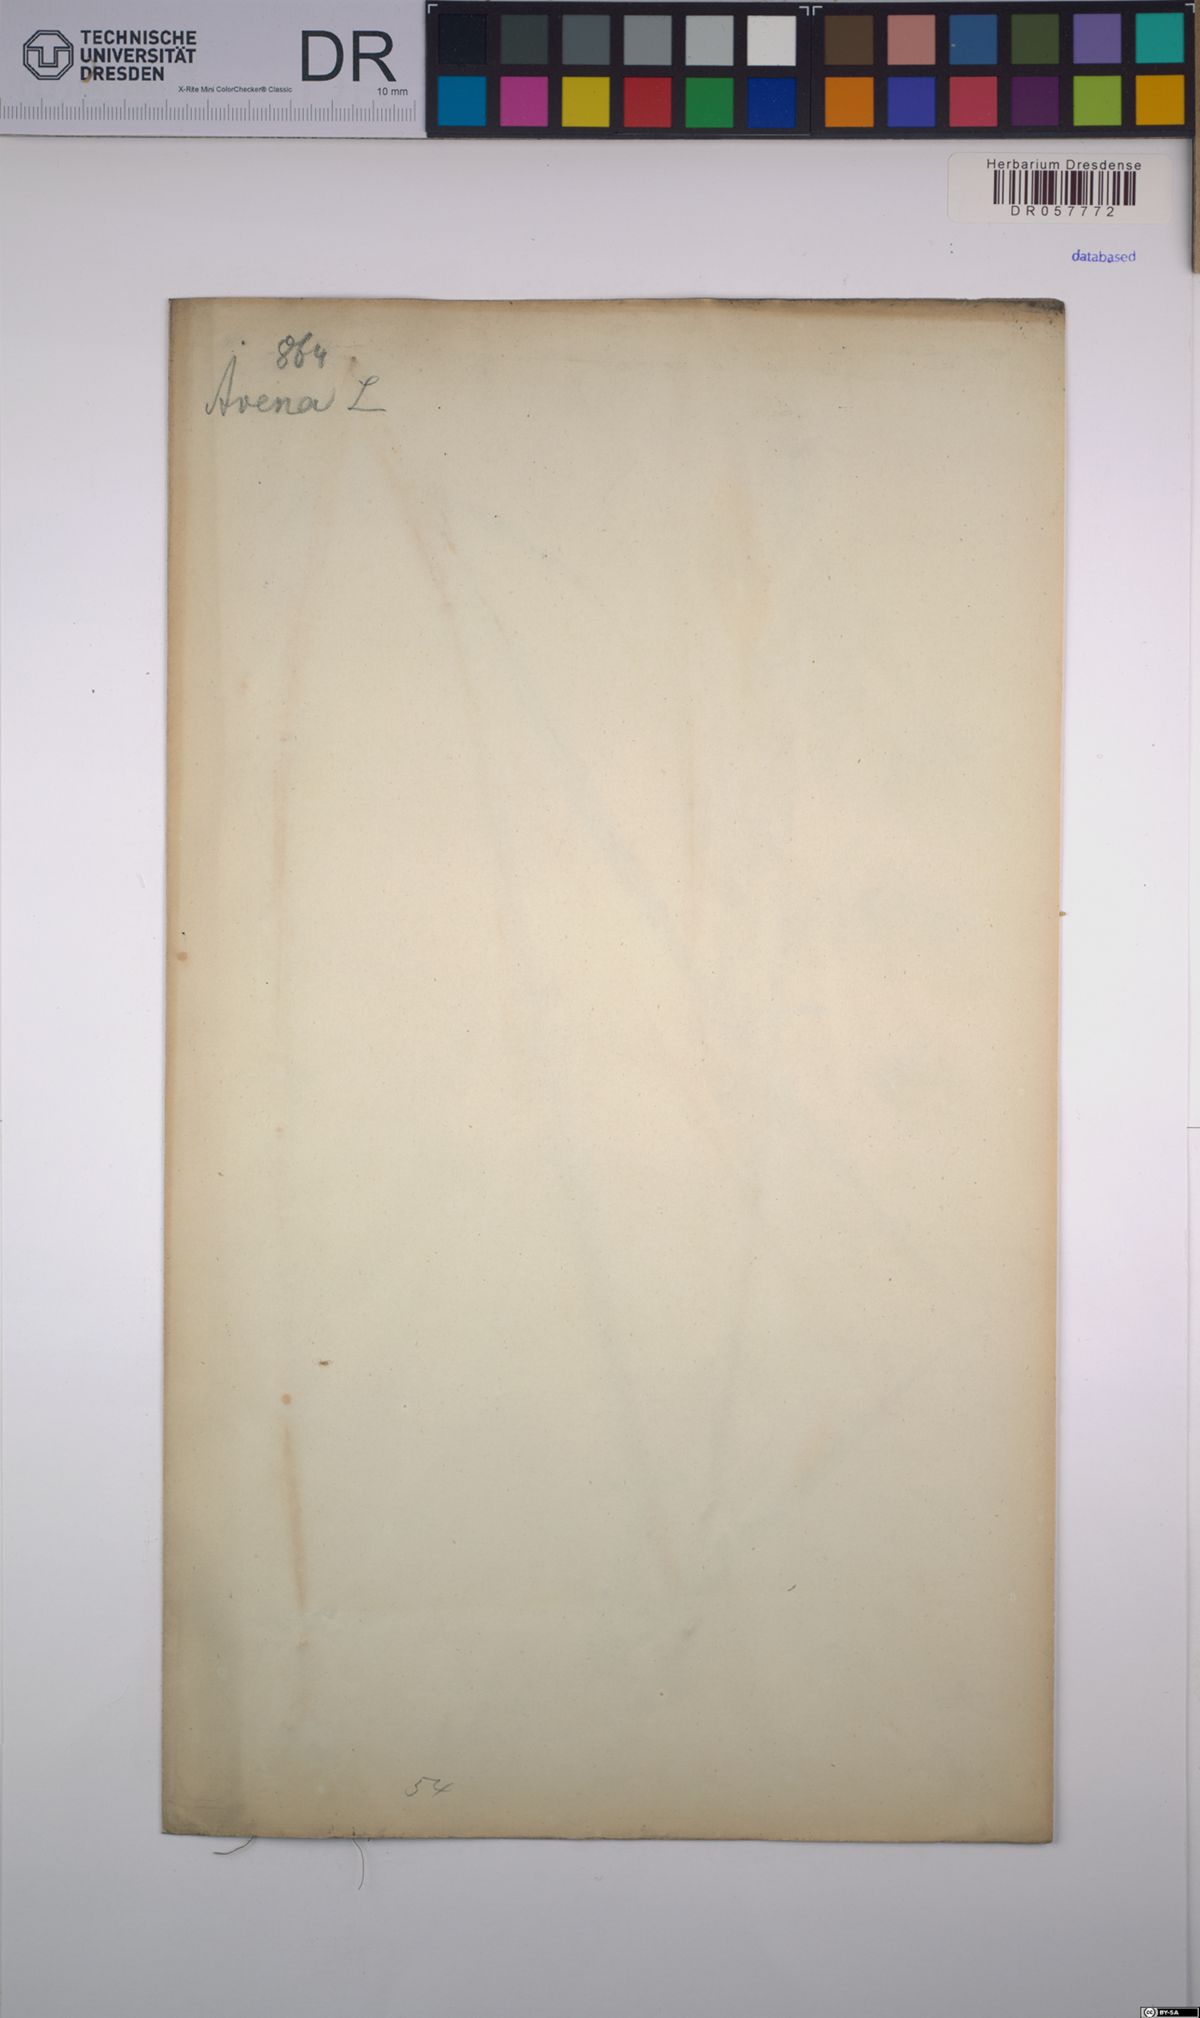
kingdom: Plantae
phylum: Tracheophyta
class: Liliopsida
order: Poales
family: Poaceae
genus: Avena
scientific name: Avena sativa
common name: Oat
